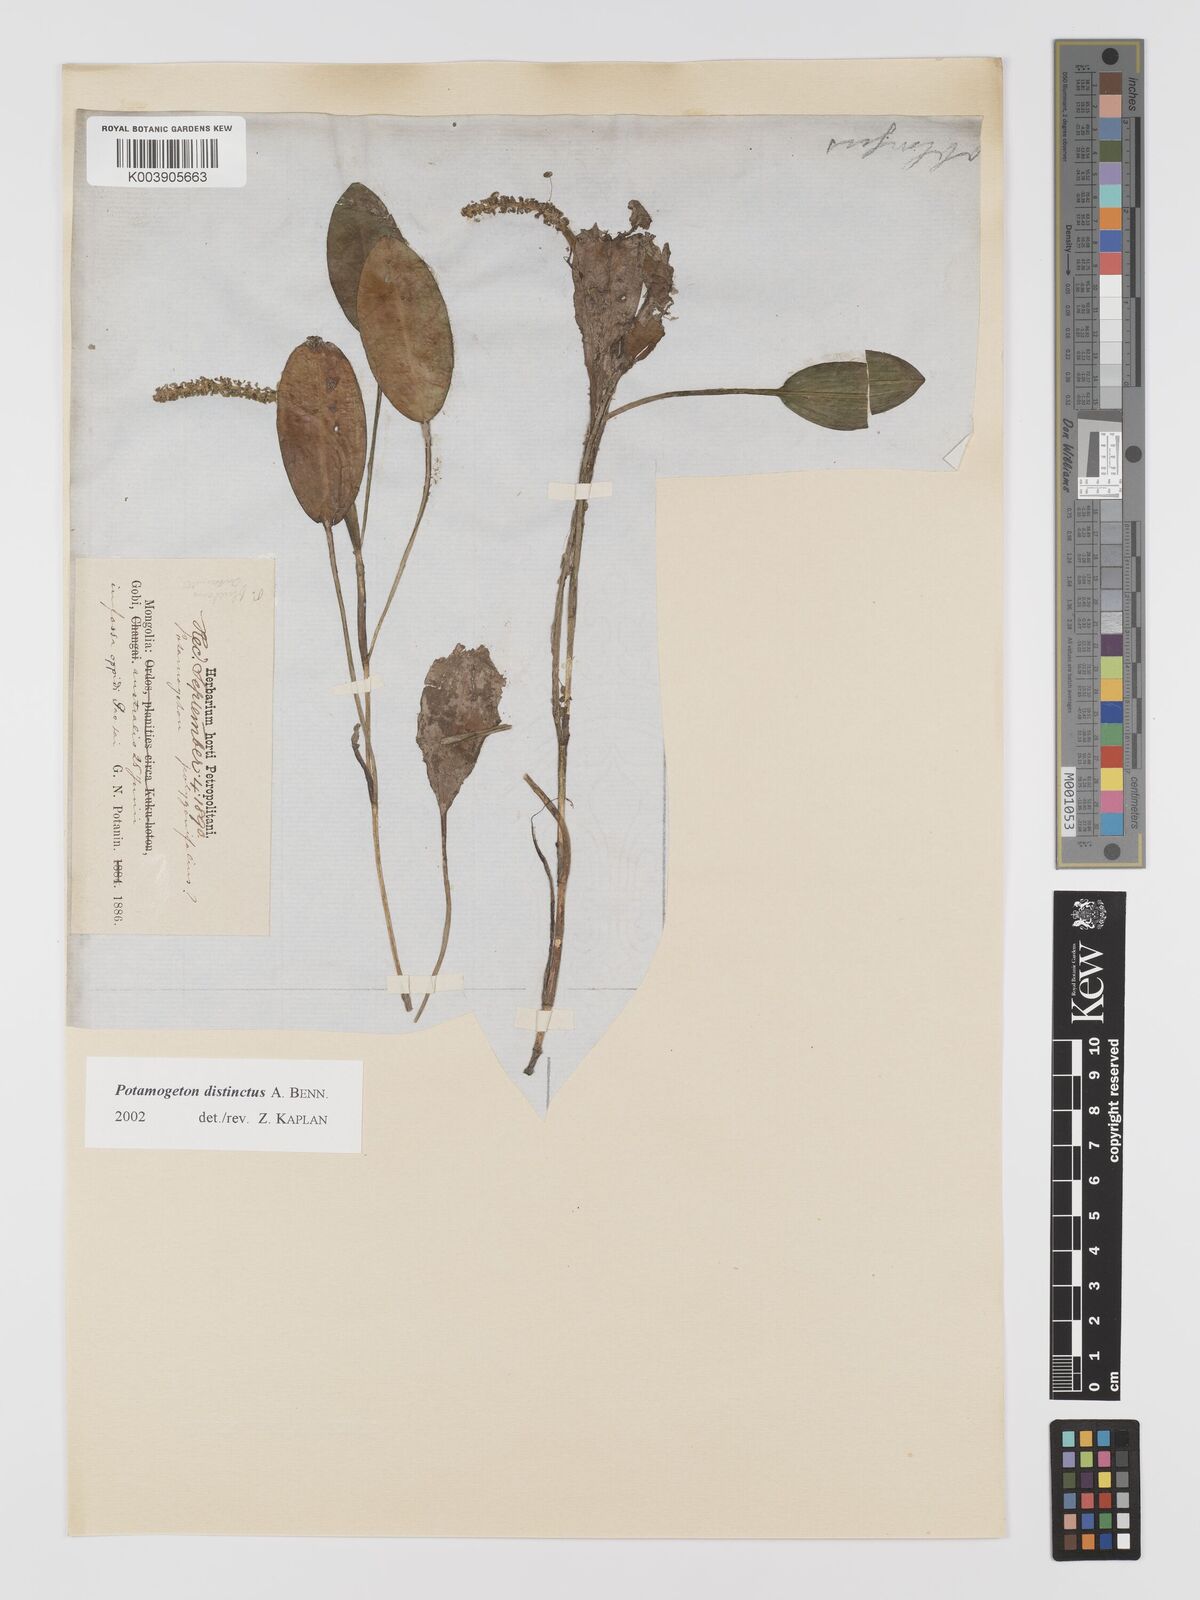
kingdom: Plantae
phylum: Tracheophyta
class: Liliopsida
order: Alismatales
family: Potamogetonaceae
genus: Potamogeton
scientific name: Potamogeton distinctus
